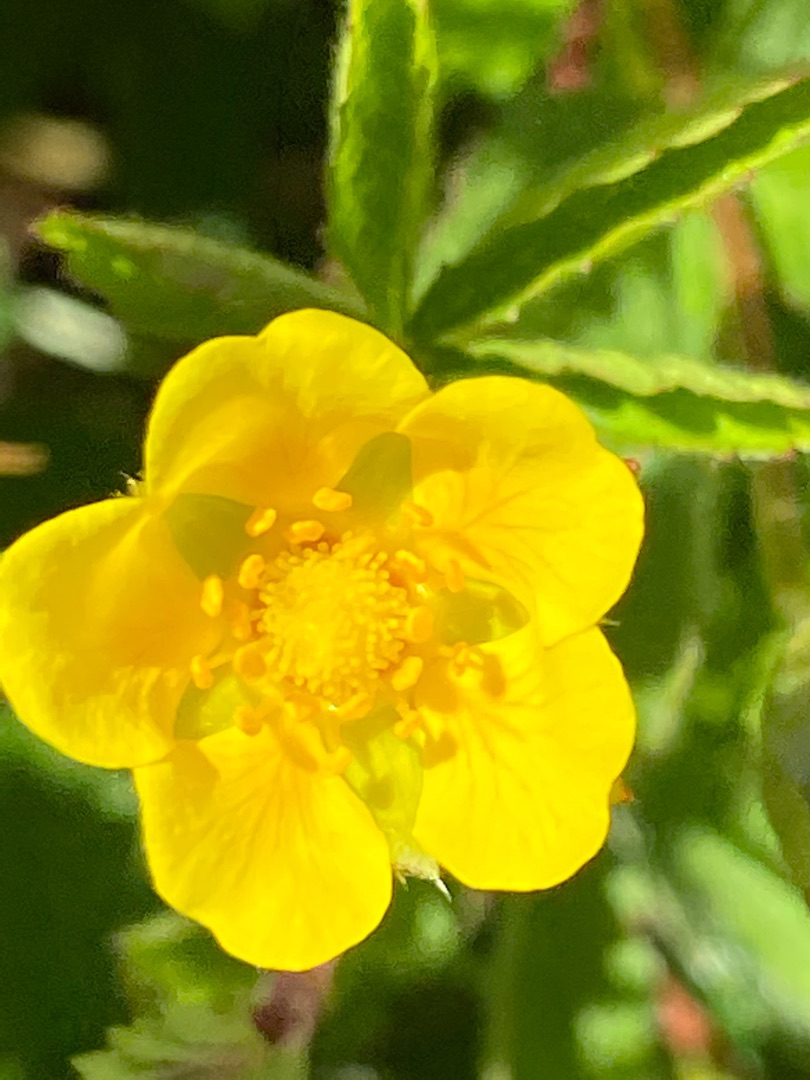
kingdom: Plantae
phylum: Tracheophyta
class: Magnoliopsida
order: Rosales
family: Rosaceae
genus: Potentilla
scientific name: Potentilla reptans
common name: Krybende potentil
